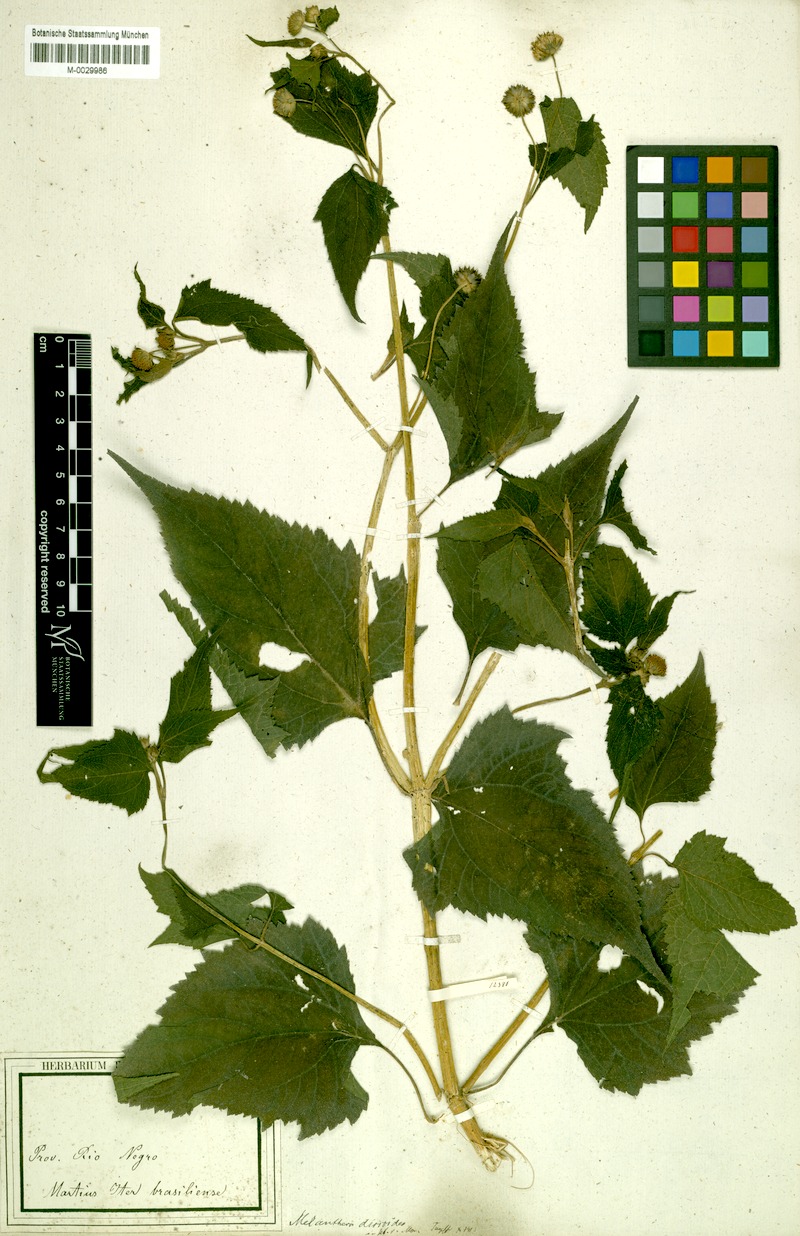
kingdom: Plantae
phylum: Tracheophyta
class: Magnoliopsida
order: Asterales
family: Asteraceae
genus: Melanthera
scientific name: Melanthera nivea
